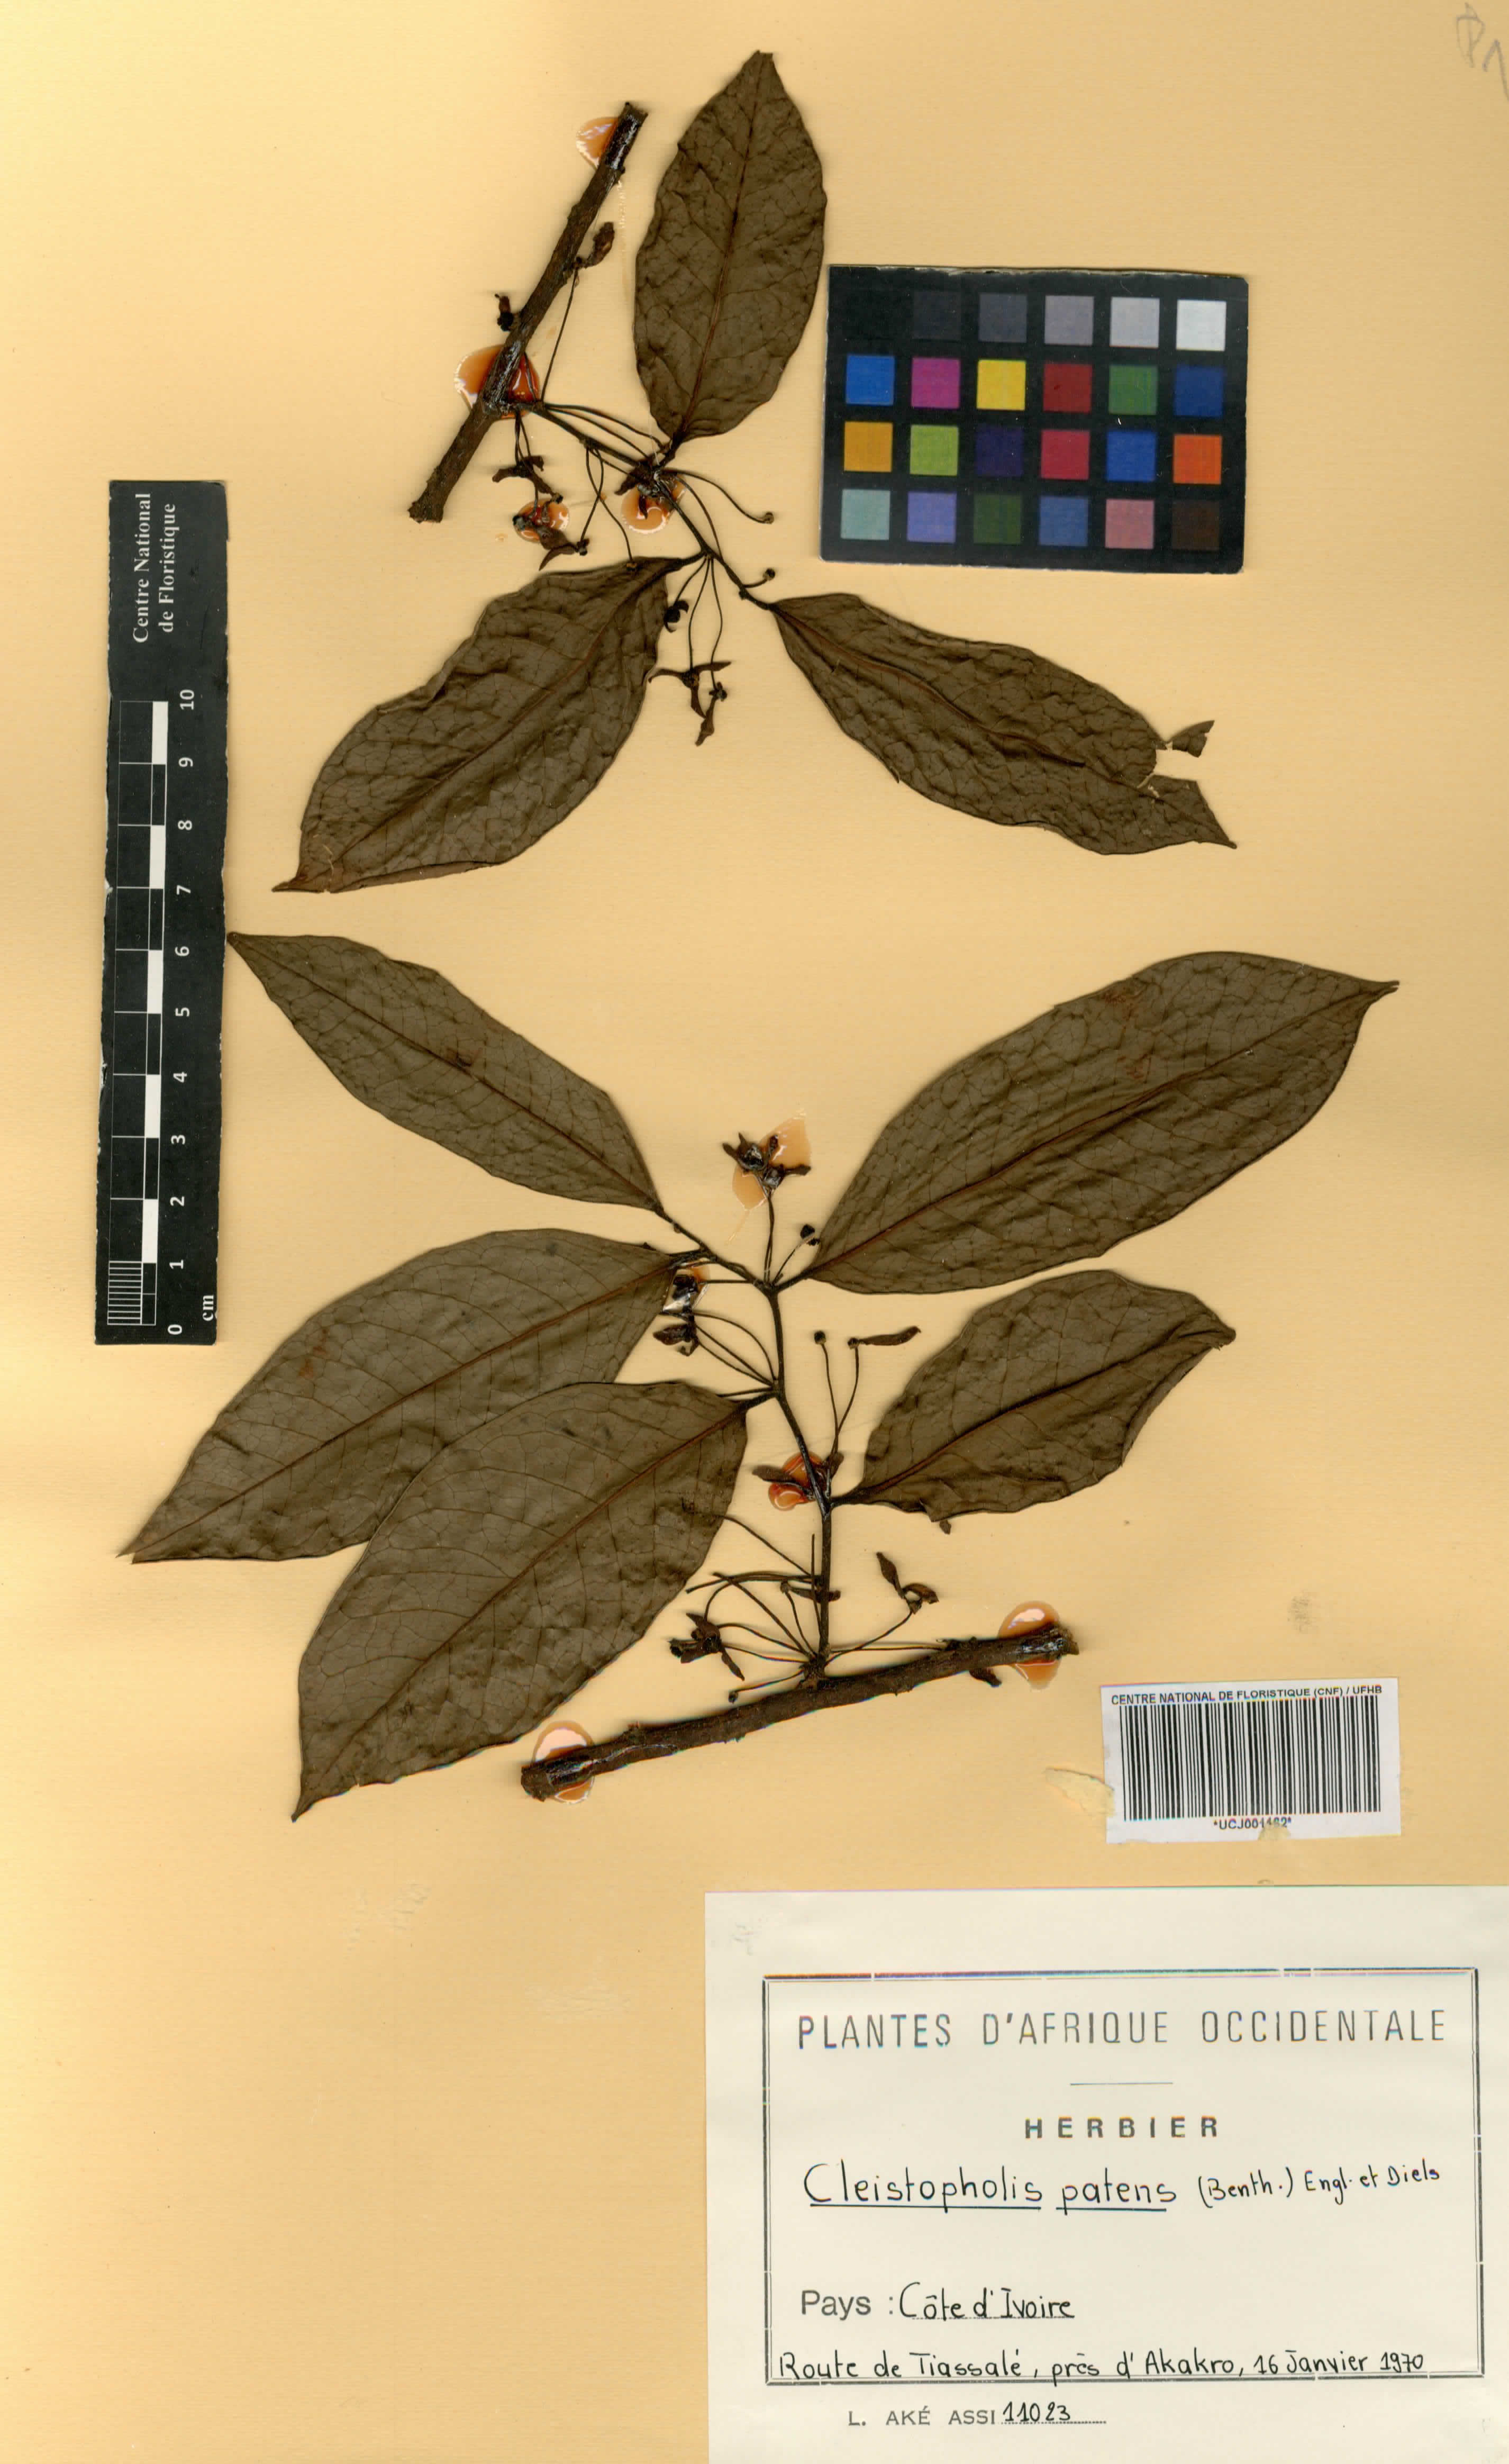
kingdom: Plantae
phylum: Tracheophyta
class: Magnoliopsida
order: Magnoliales
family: Annonaceae
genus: Cleistopholis
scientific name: Cleistopholis patens
